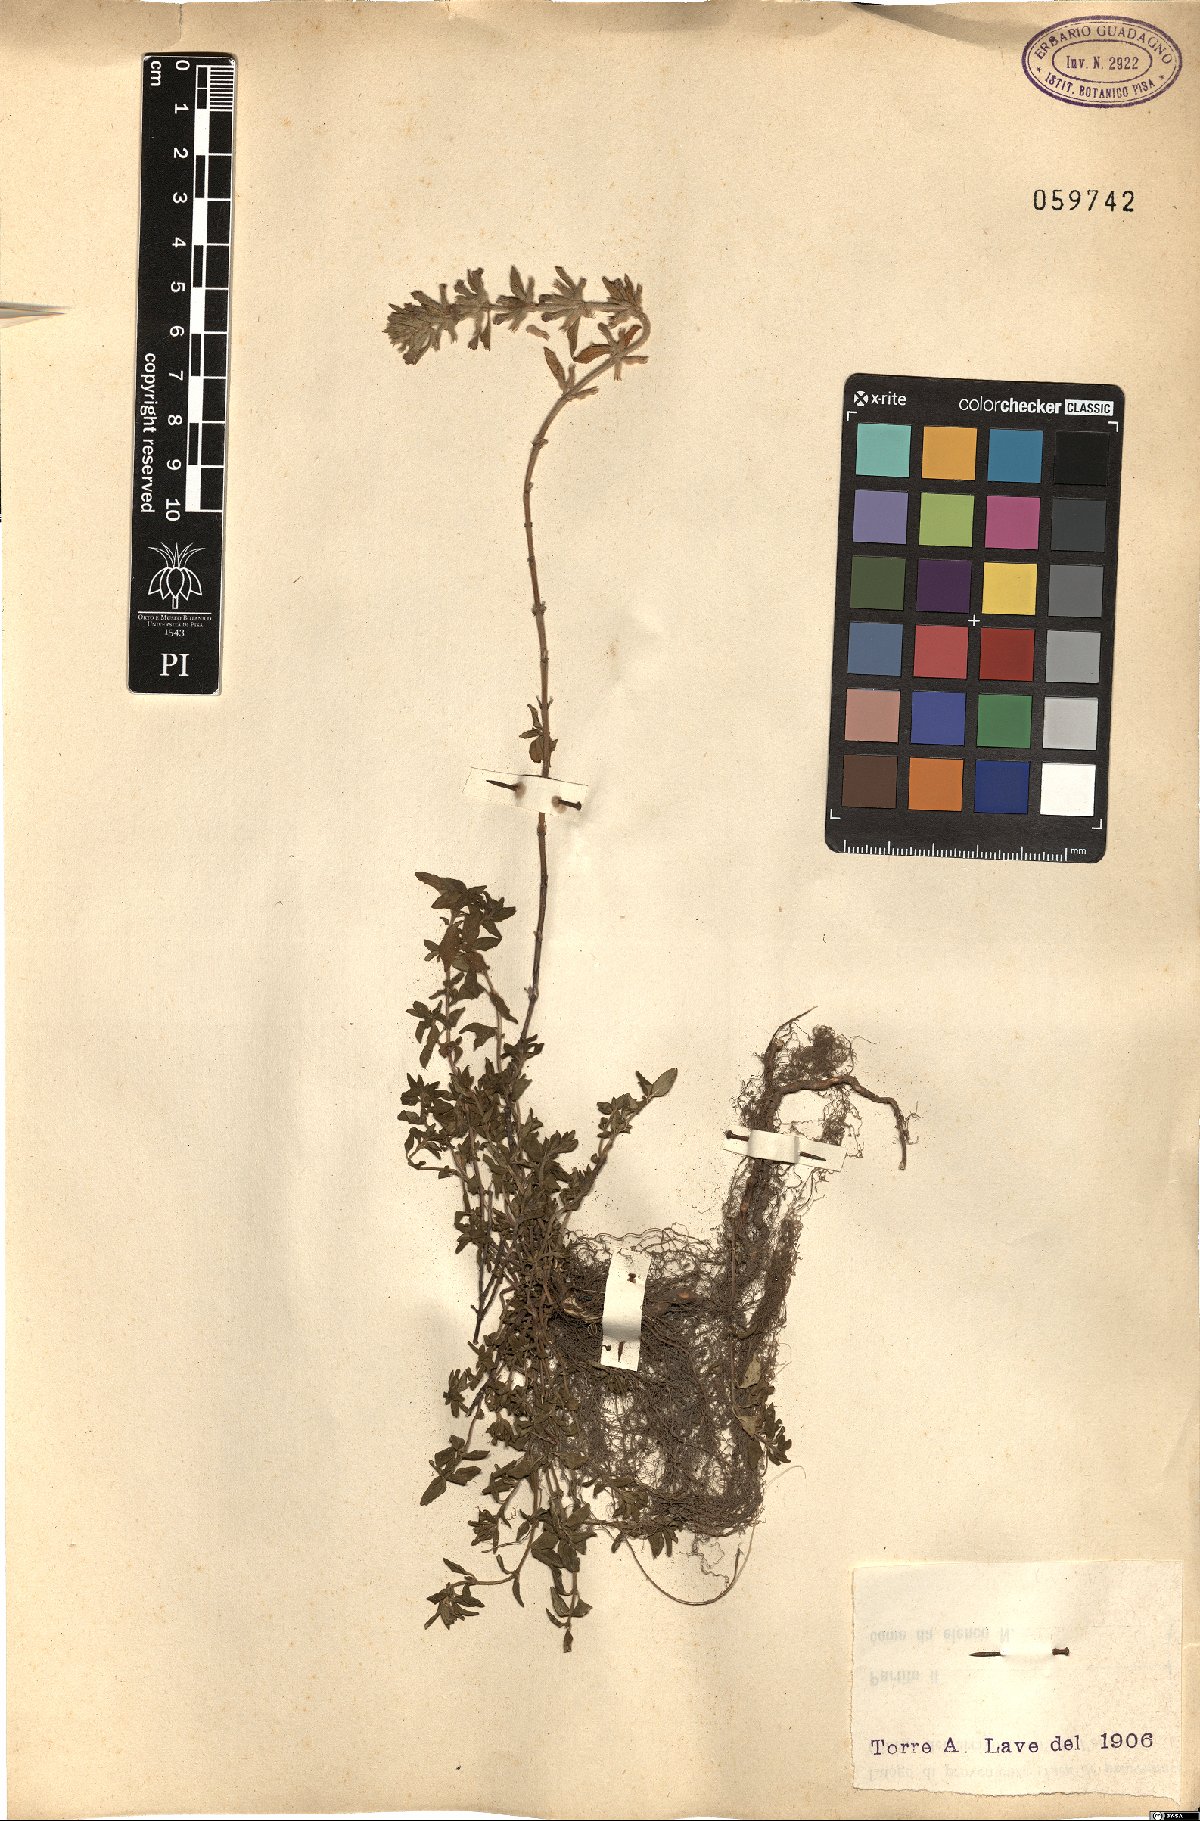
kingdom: Plantae
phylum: Tracheophyta
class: Magnoliopsida
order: Lamiales
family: Lamiaceae
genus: Clinopodium
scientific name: Clinopodium acinos
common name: Basil thyme
